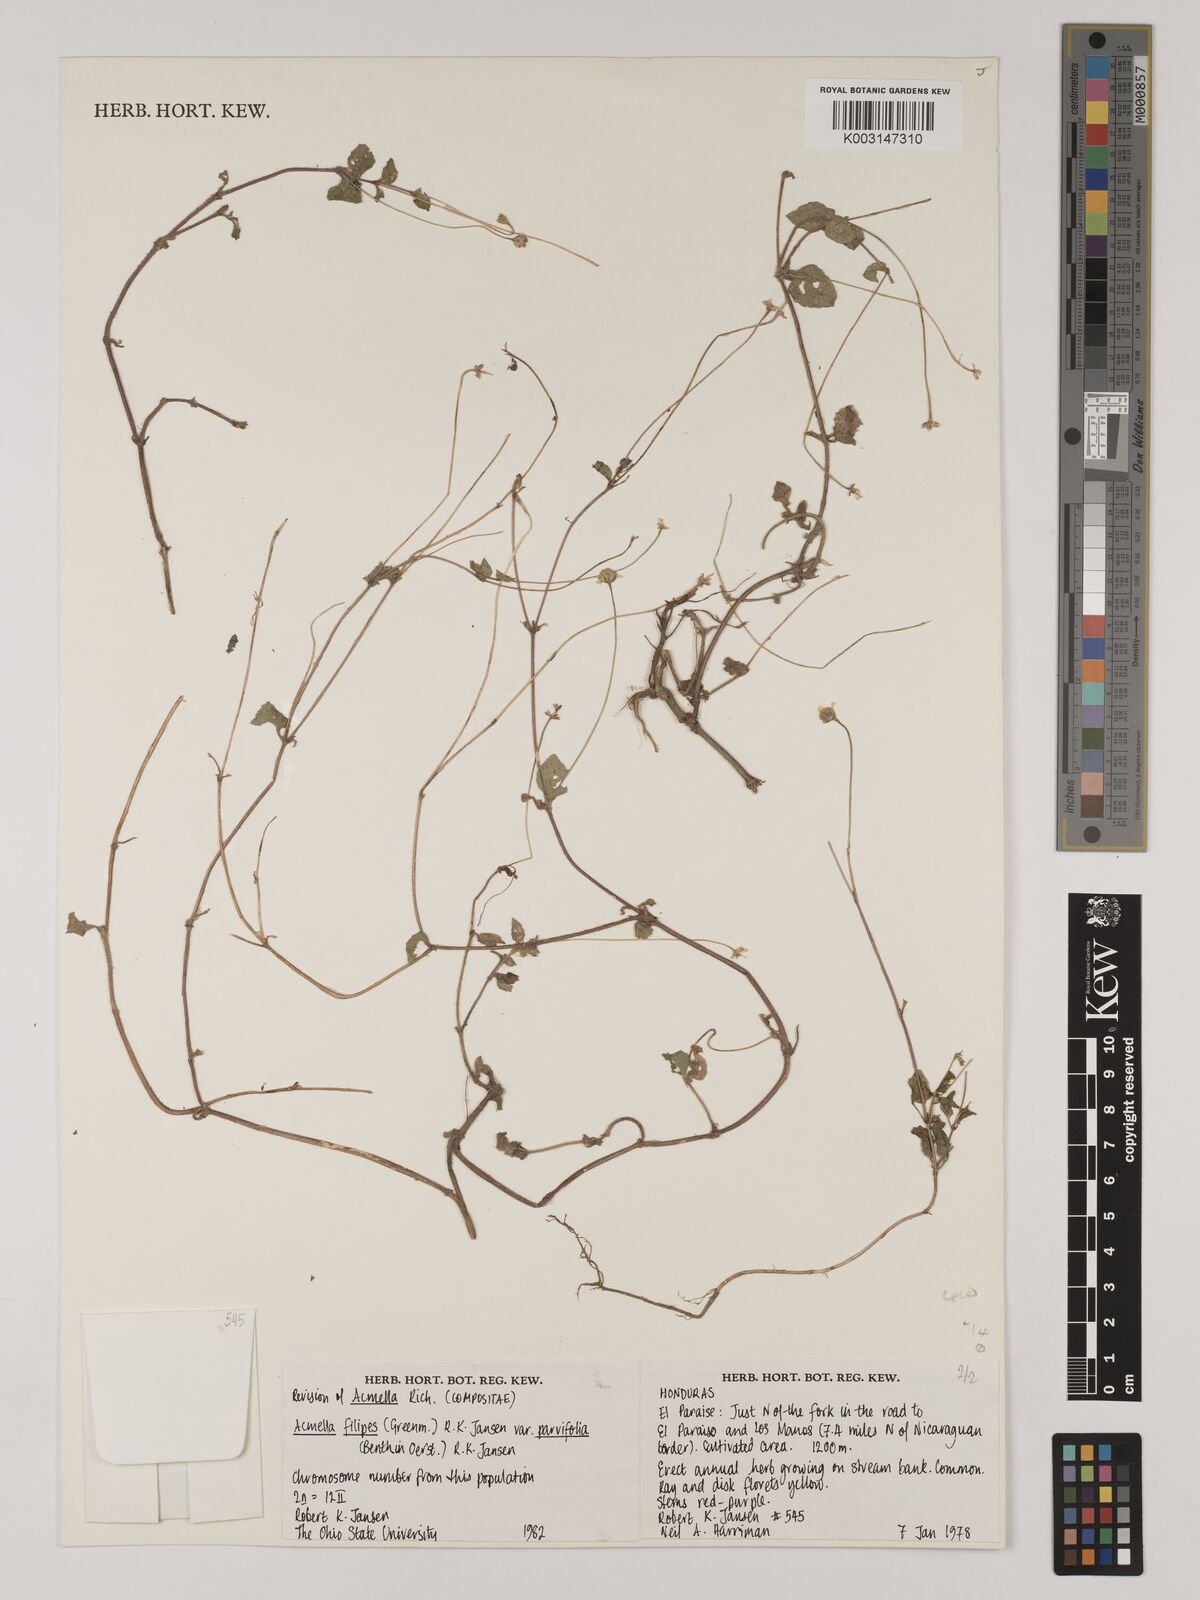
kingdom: Plantae
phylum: Tracheophyta
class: Magnoliopsida
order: Asterales
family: Asteraceae
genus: Acmella
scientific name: Acmella filipes
